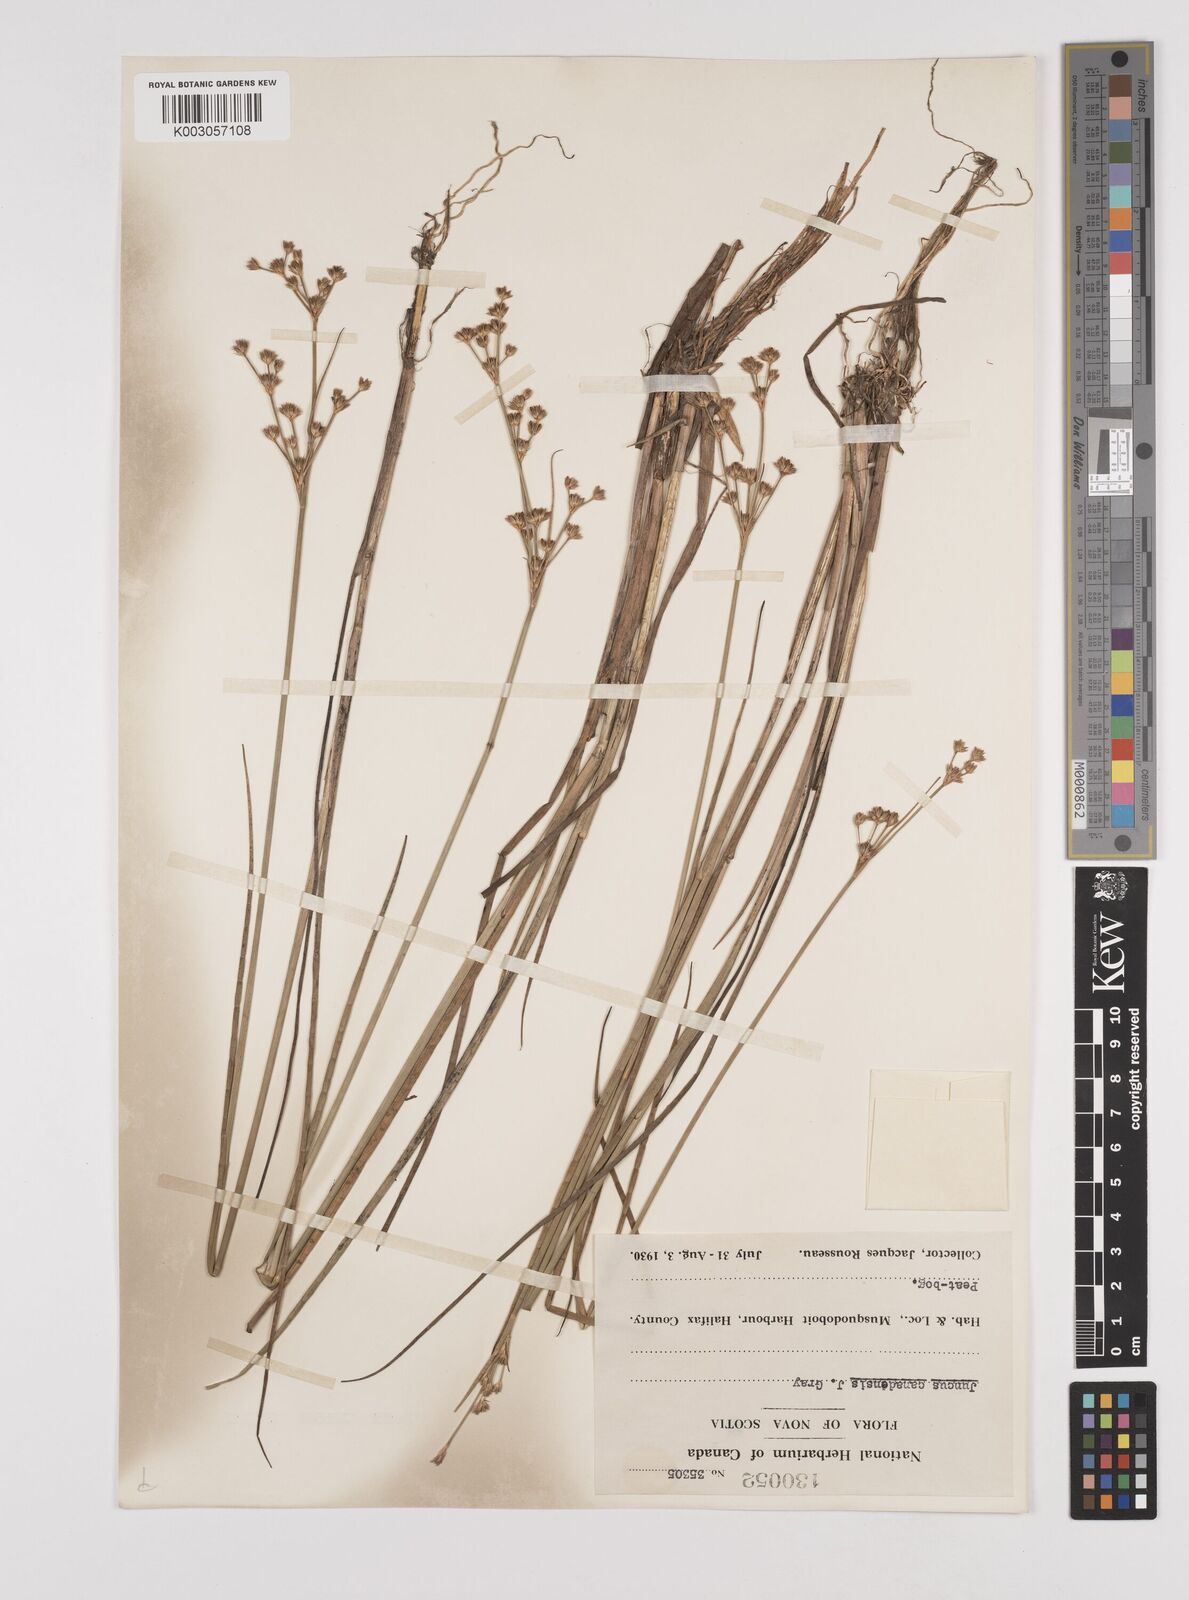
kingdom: Plantae
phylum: Tracheophyta
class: Liliopsida
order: Poales
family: Juncaceae
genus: Juncus
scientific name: Juncus canadensis
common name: Canada rush
